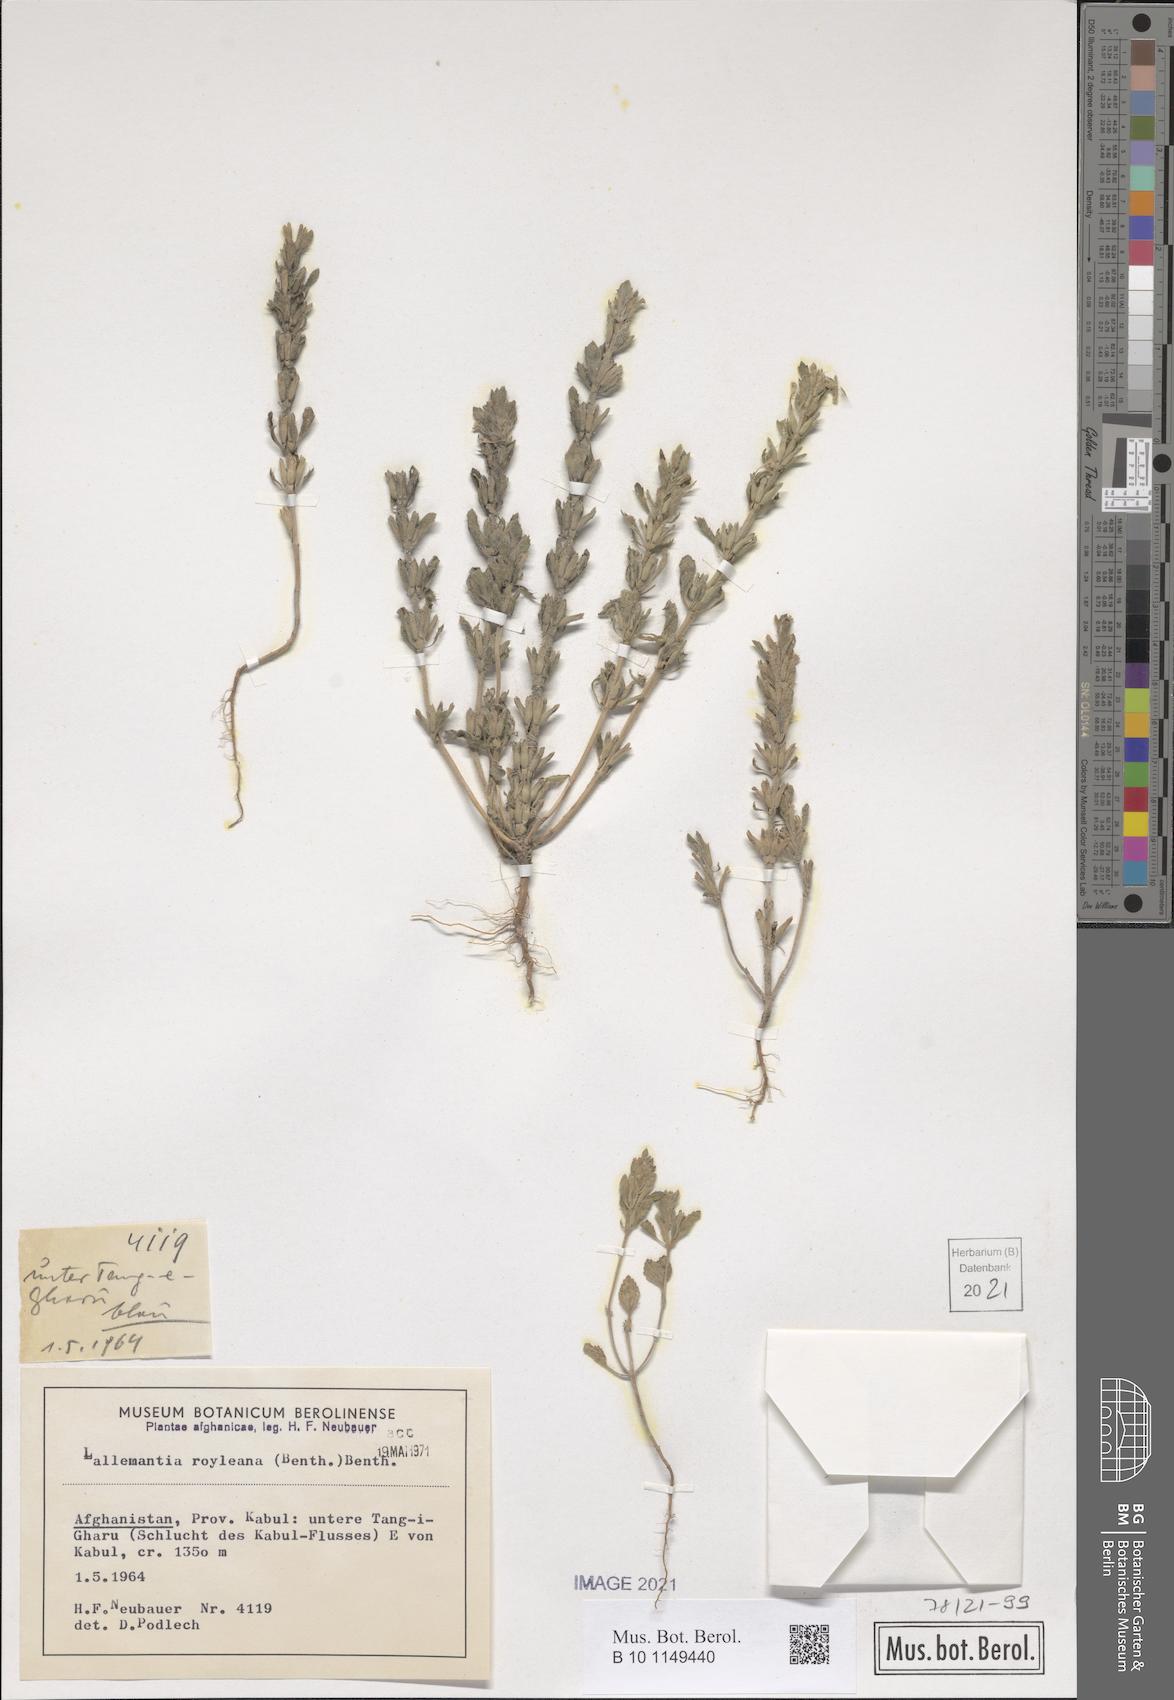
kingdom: Plantae
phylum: Tracheophyta
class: Magnoliopsida
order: Lamiales
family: Lamiaceae
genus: Lallemantia
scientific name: Lallemantia royleana
